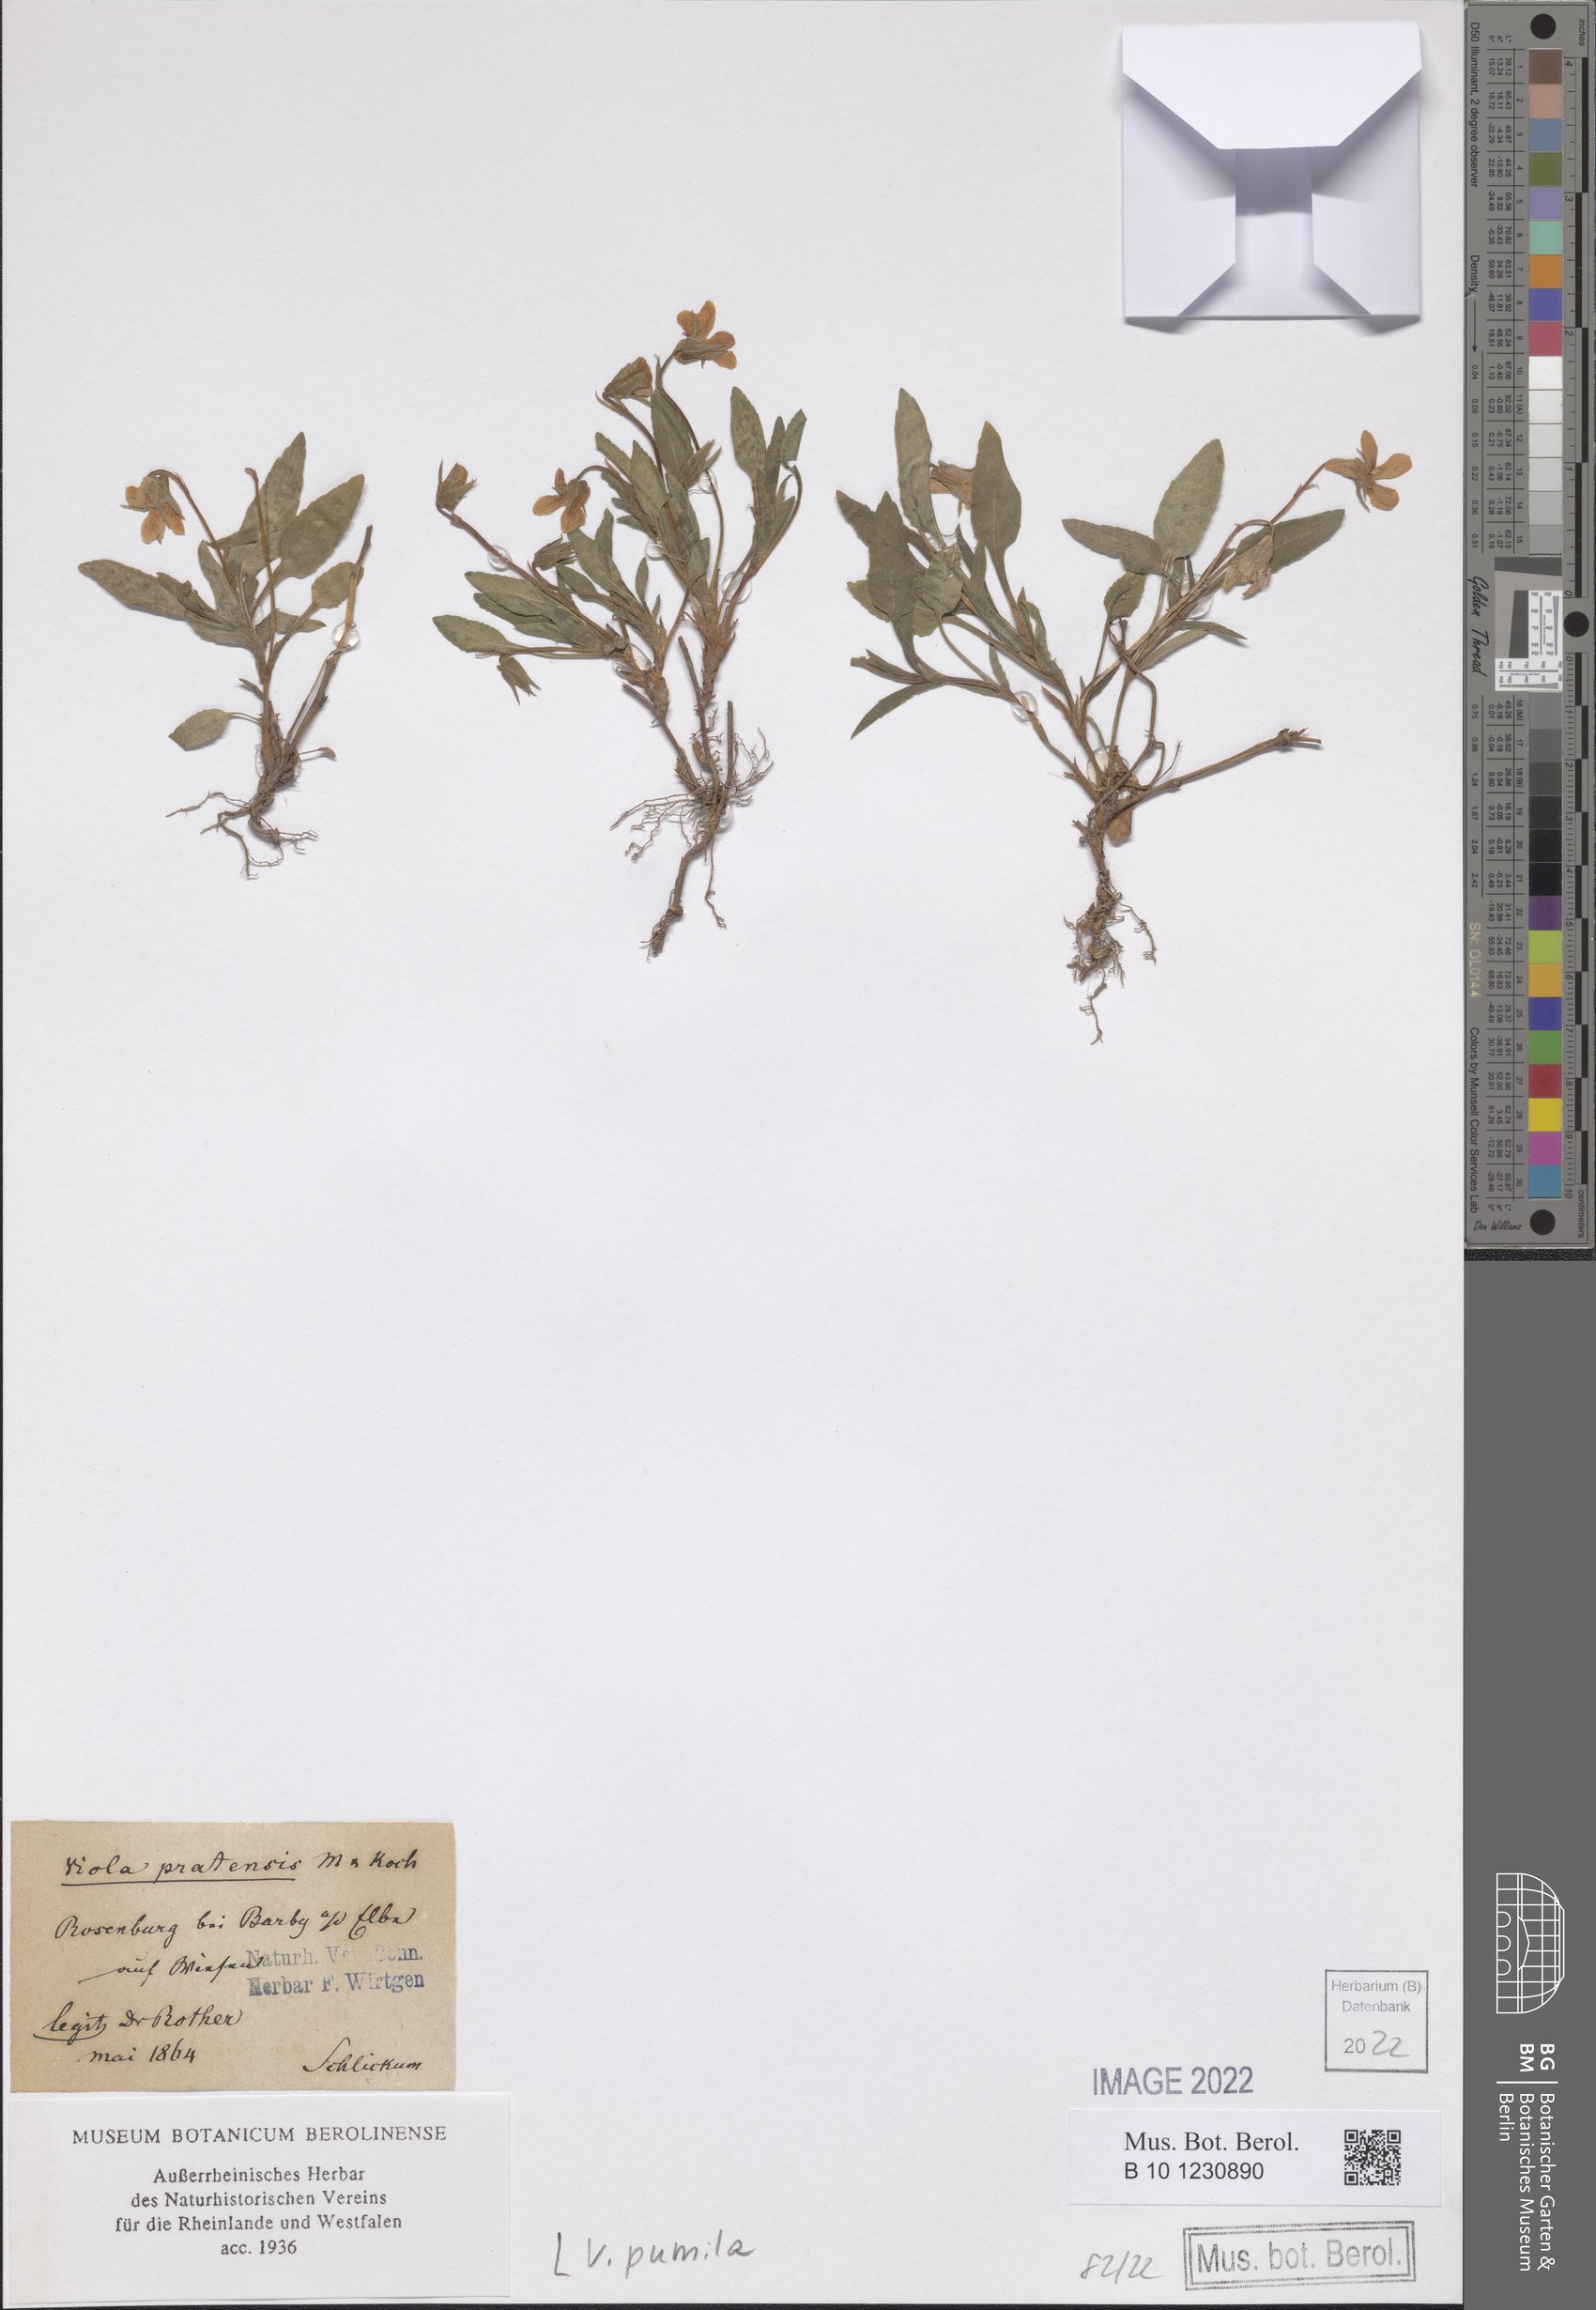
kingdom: Plantae
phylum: Tracheophyta
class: Magnoliopsida
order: Malpighiales
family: Violaceae
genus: Viola
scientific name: Viola pumila
